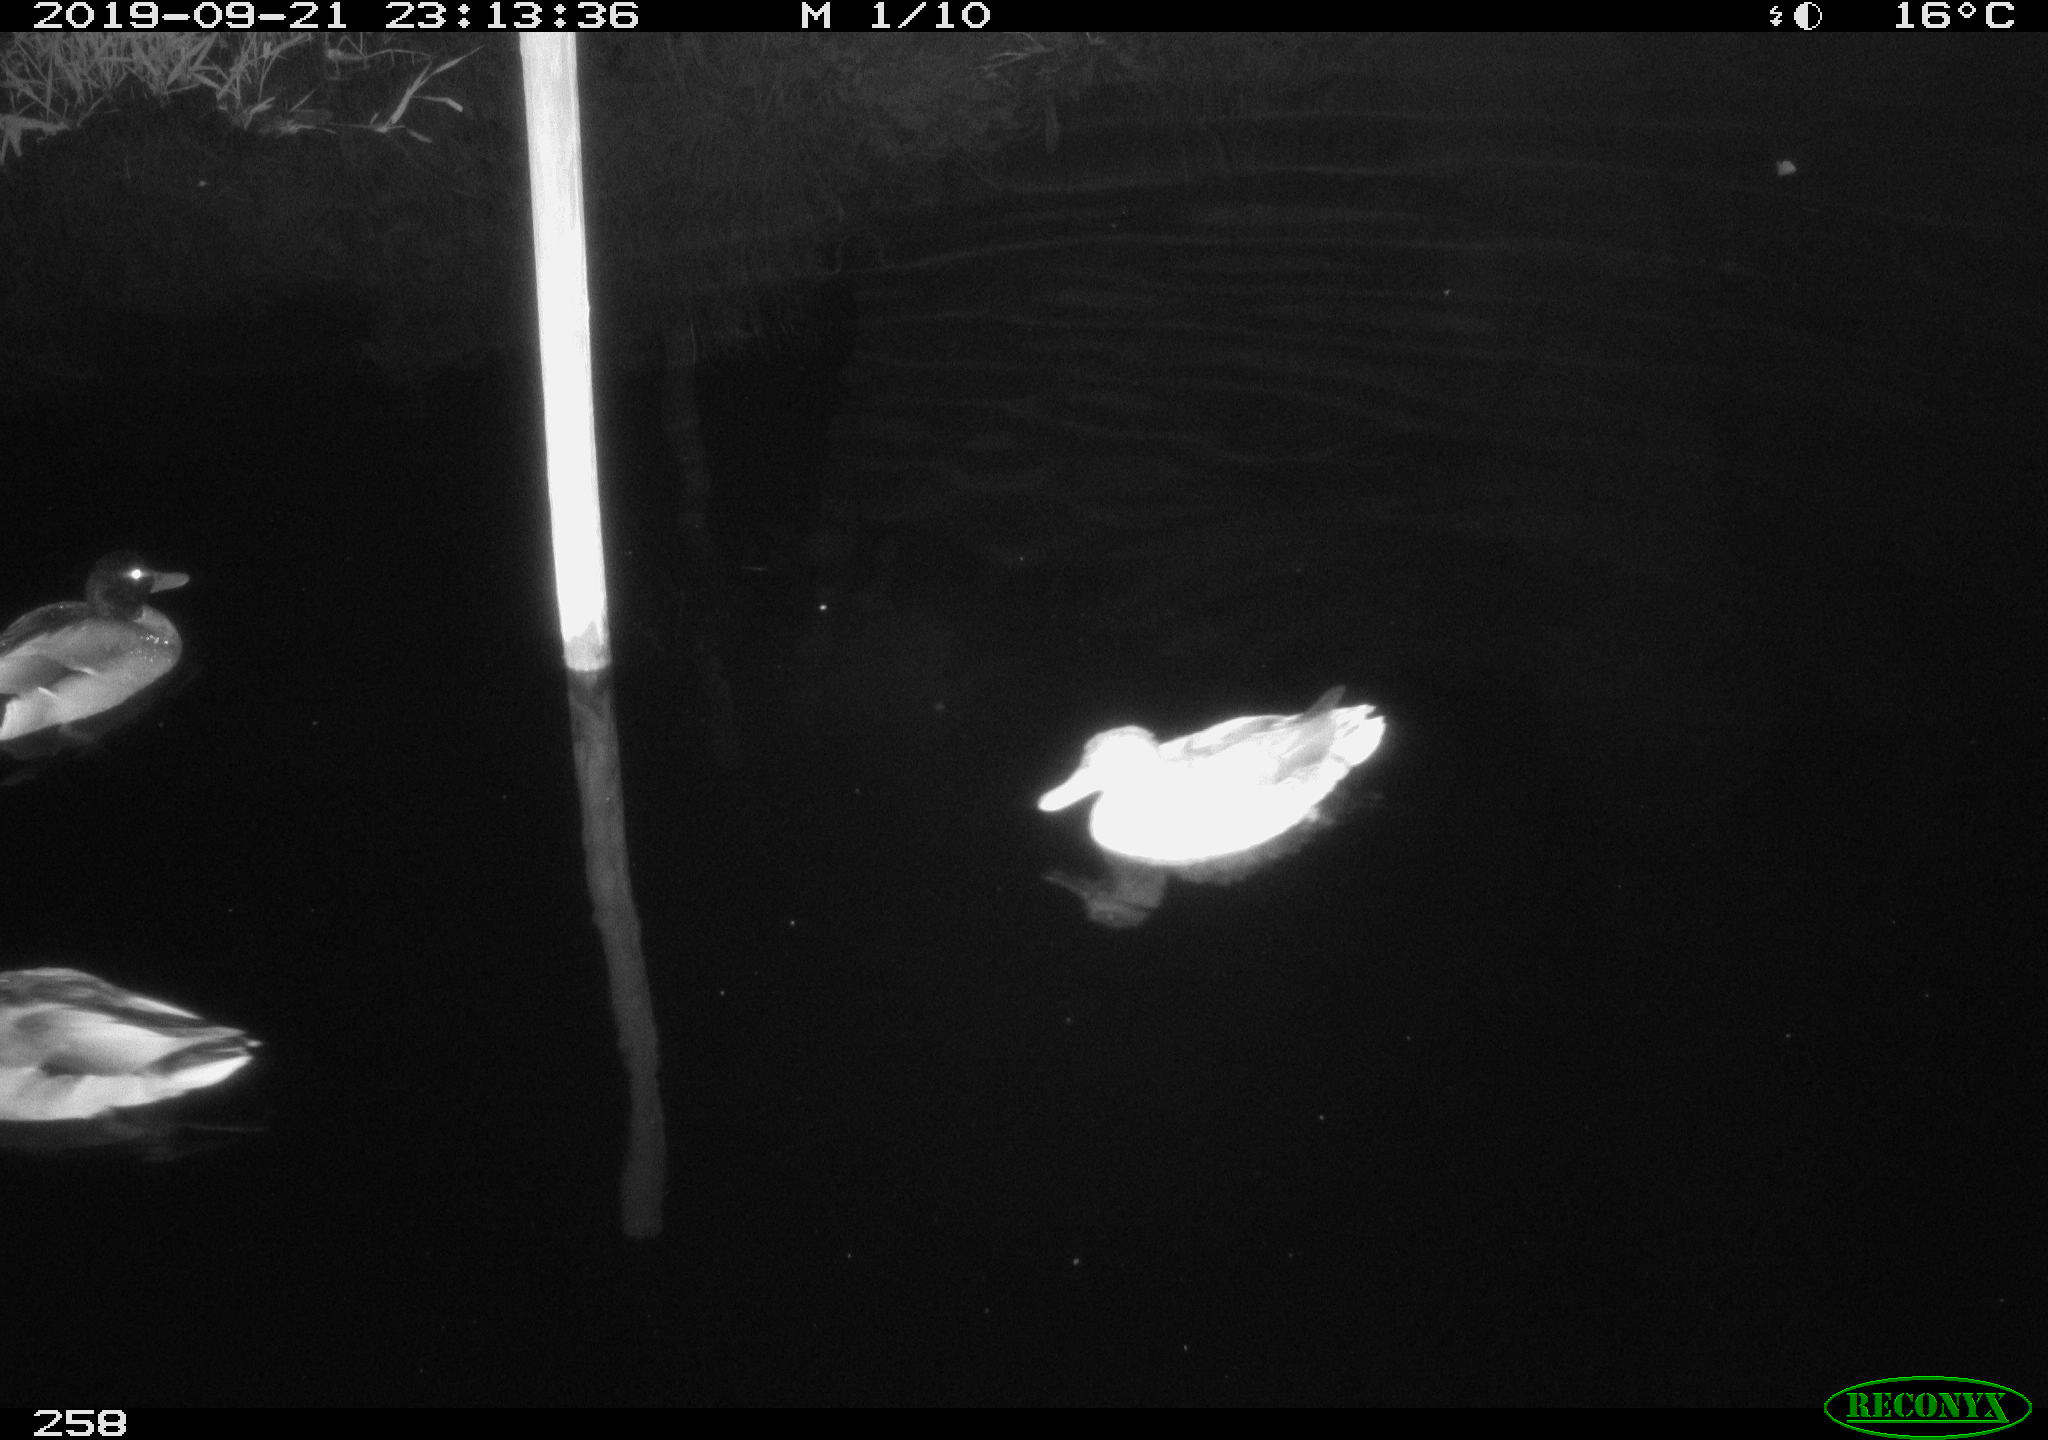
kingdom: Animalia
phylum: Chordata
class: Aves
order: Anseriformes
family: Anatidae
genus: Anas
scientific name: Anas platyrhynchos
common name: Mallard
